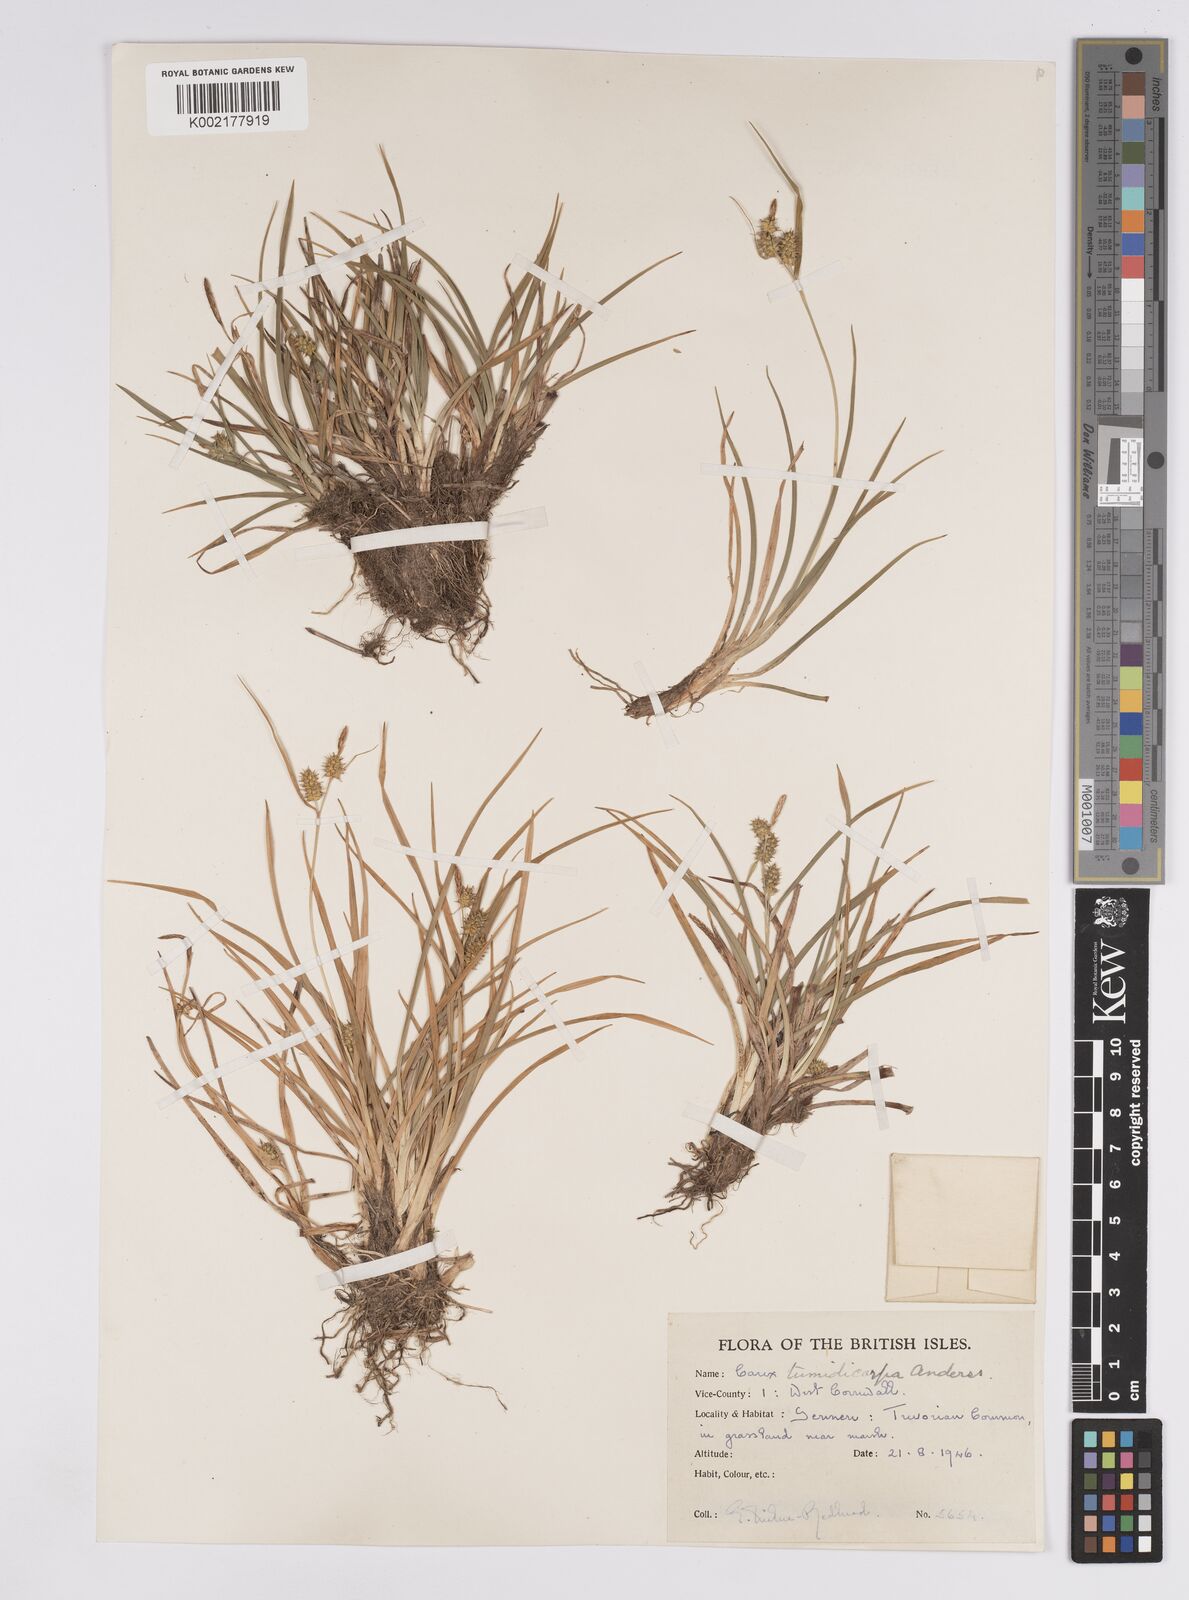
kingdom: Plantae
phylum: Tracheophyta
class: Liliopsida
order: Poales
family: Cyperaceae
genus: Carex
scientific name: Carex demissa
